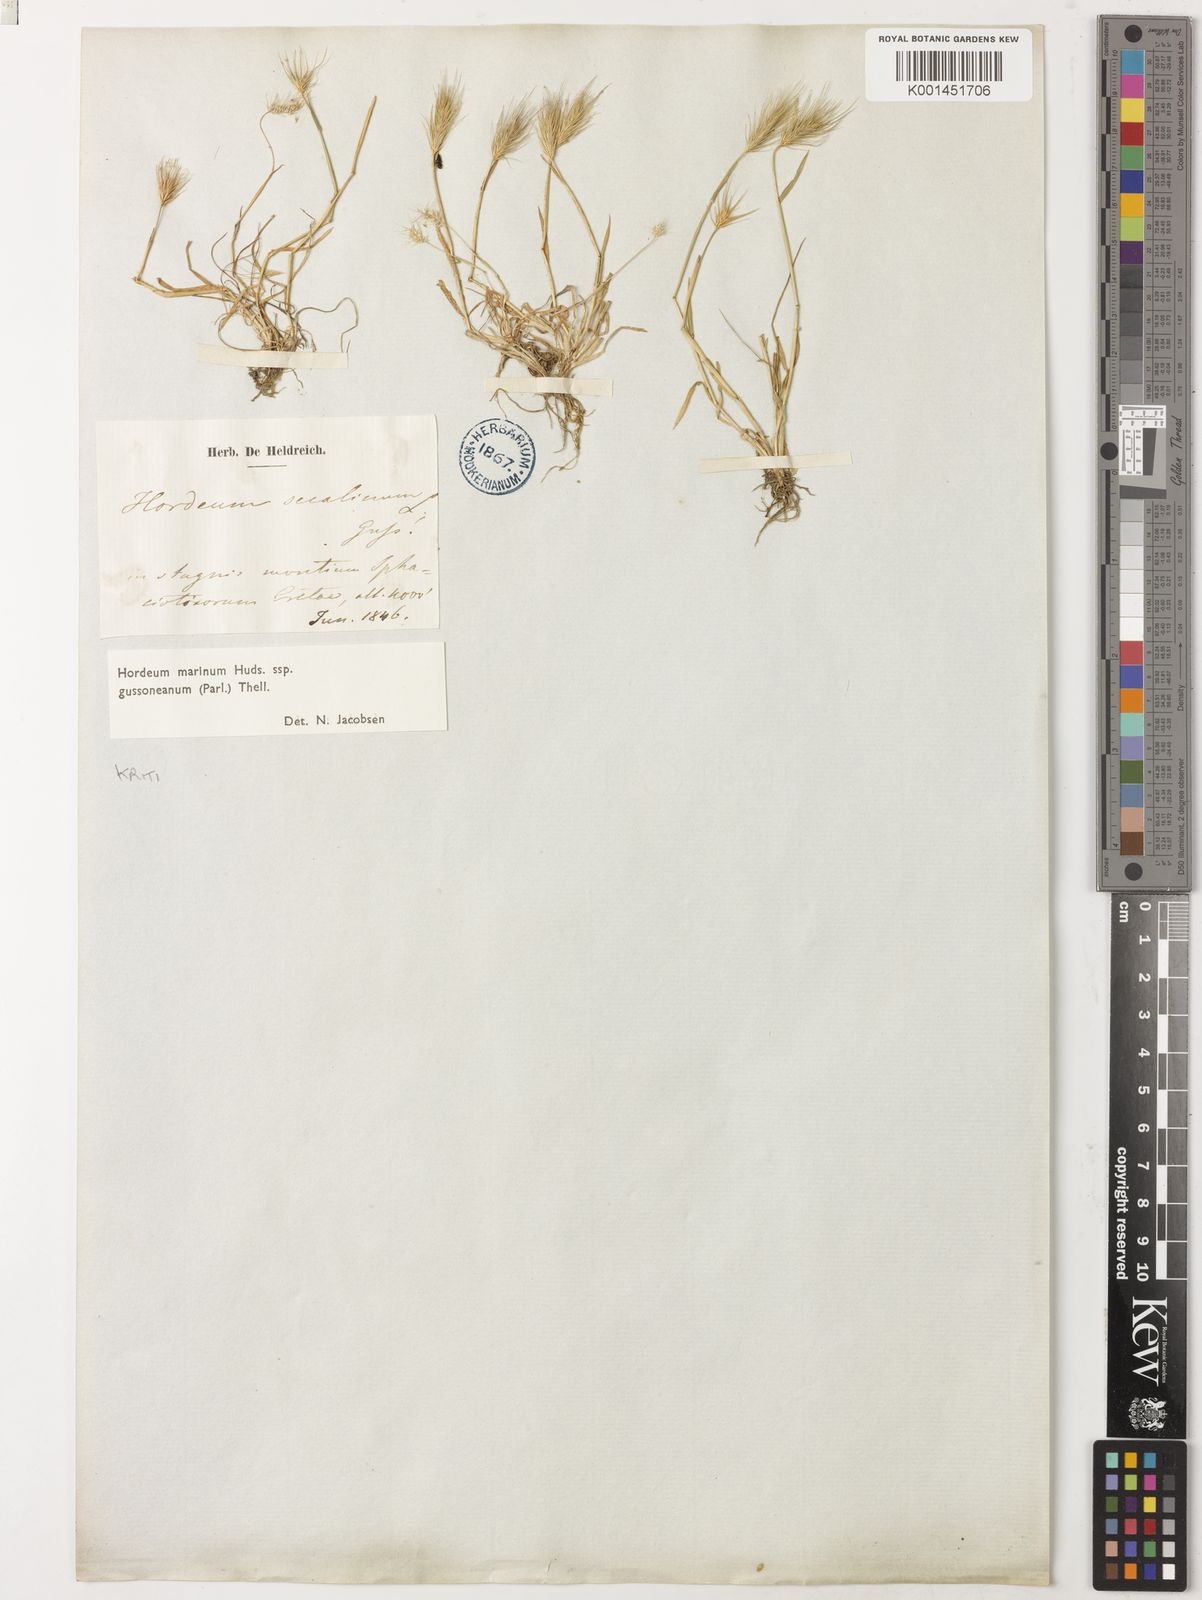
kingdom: Plantae
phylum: Tracheophyta
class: Liliopsida
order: Poales
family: Poaceae
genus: Hordeum
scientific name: Hordeum marinum
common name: Sea barley
